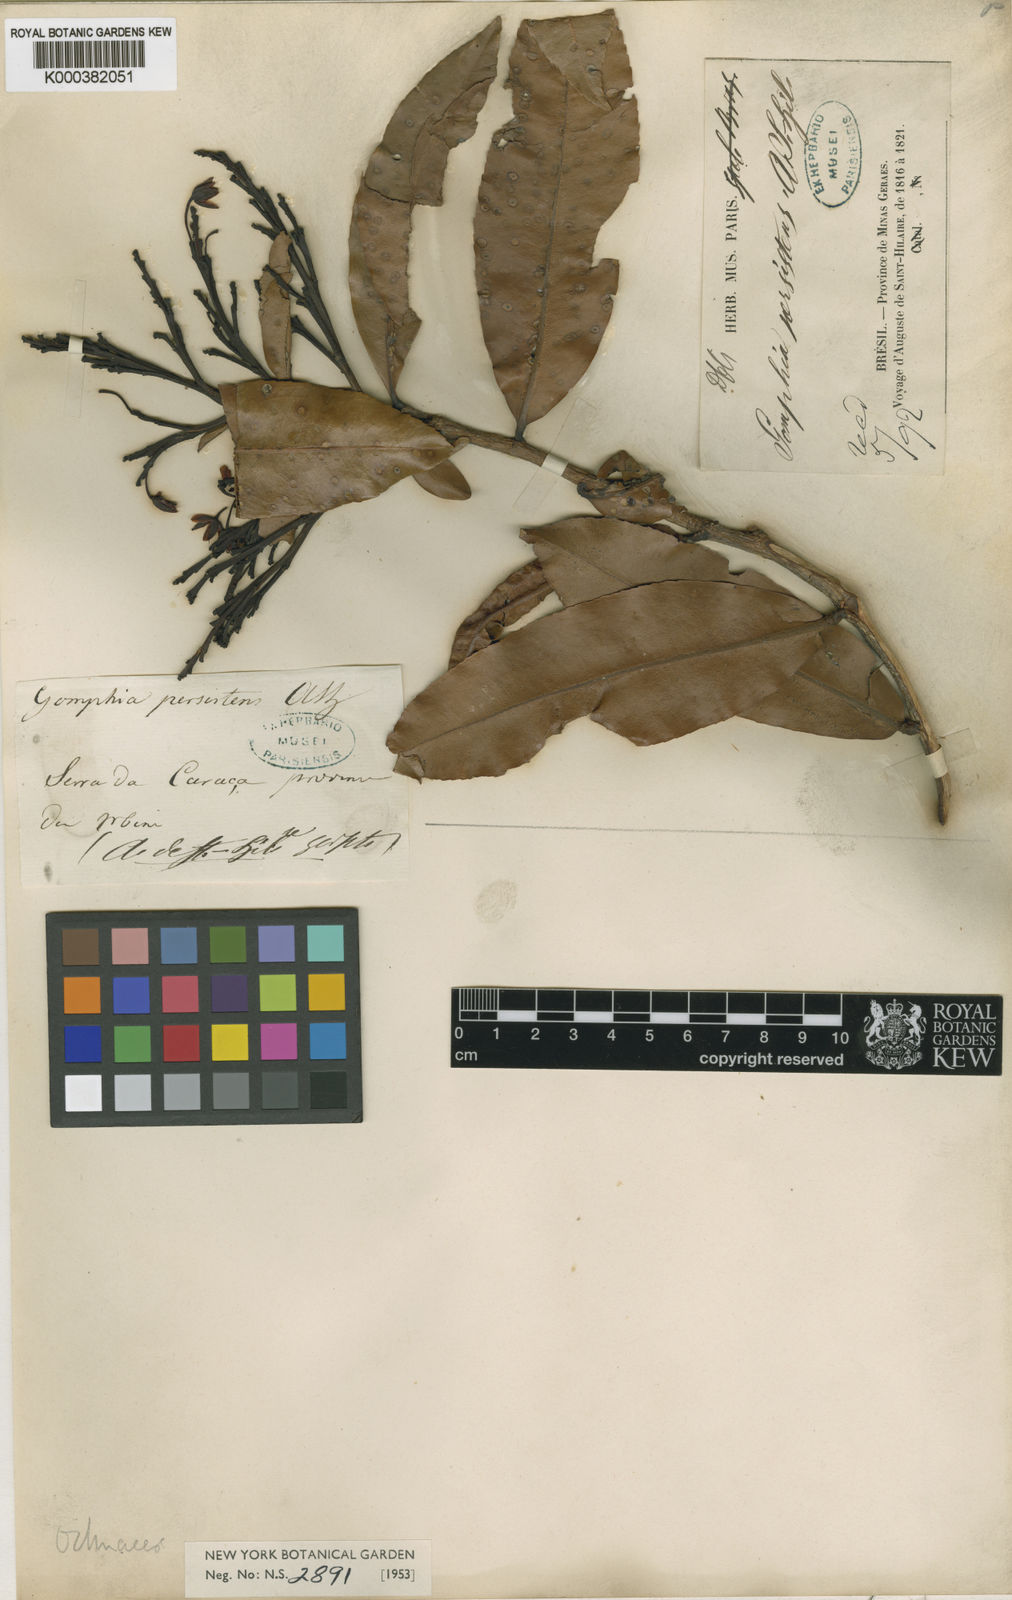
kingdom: Plantae
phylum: Tracheophyta
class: Magnoliopsida
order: Malpighiales
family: Ochnaceae
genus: Ouratea
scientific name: Ouratea
